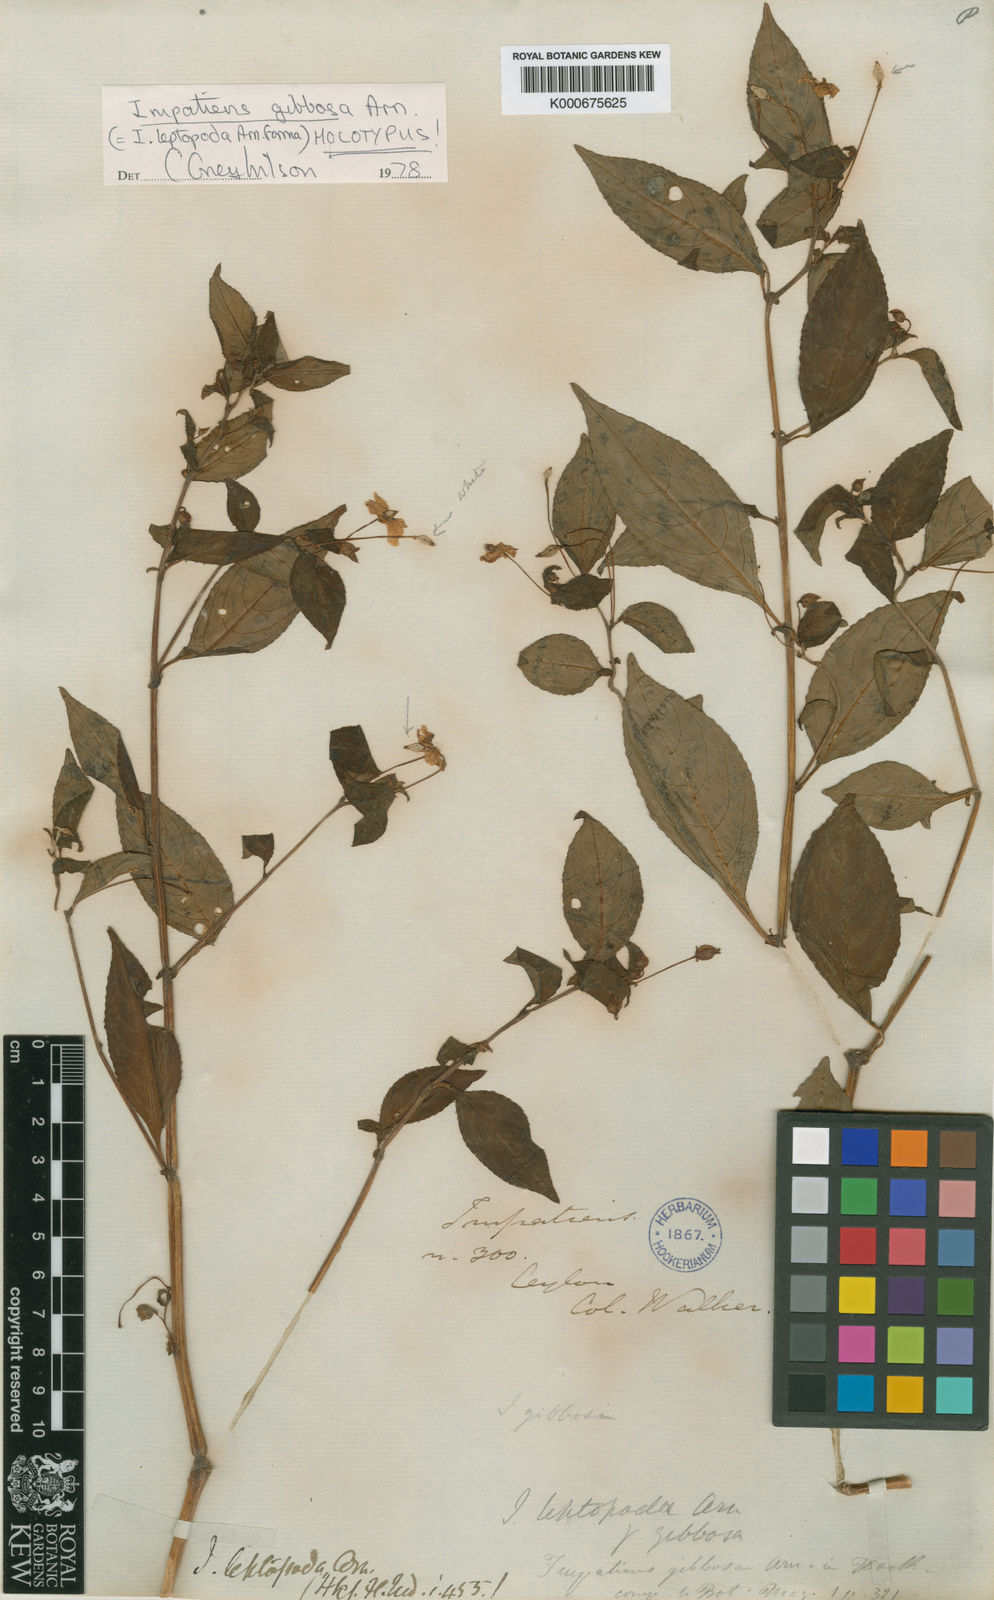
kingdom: Plantae
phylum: Tracheophyta
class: Magnoliopsida
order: Ericales
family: Balsaminaceae
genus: Impatiens
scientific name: Impatiens leptopoda
